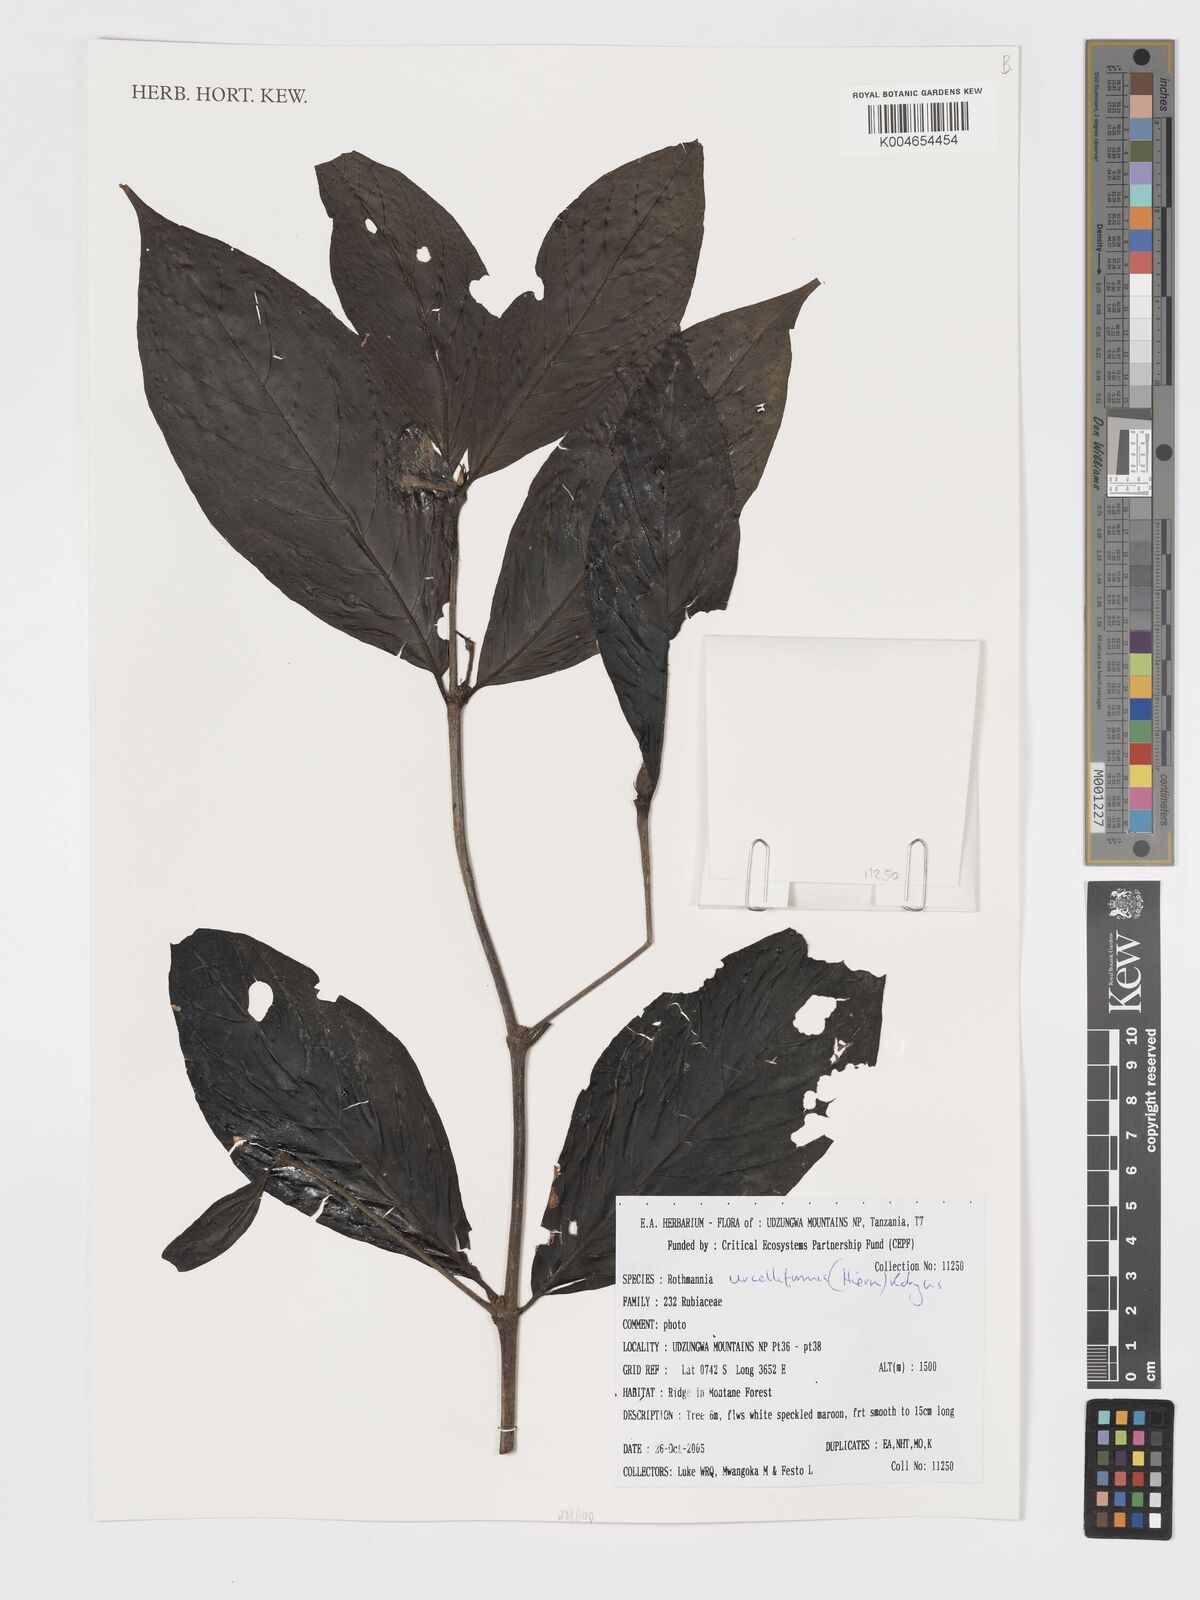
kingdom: Plantae
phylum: Tracheophyta
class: Magnoliopsida
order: Gentianales
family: Rubiaceae
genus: Rothmannia
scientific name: Rothmannia urcelliformis
